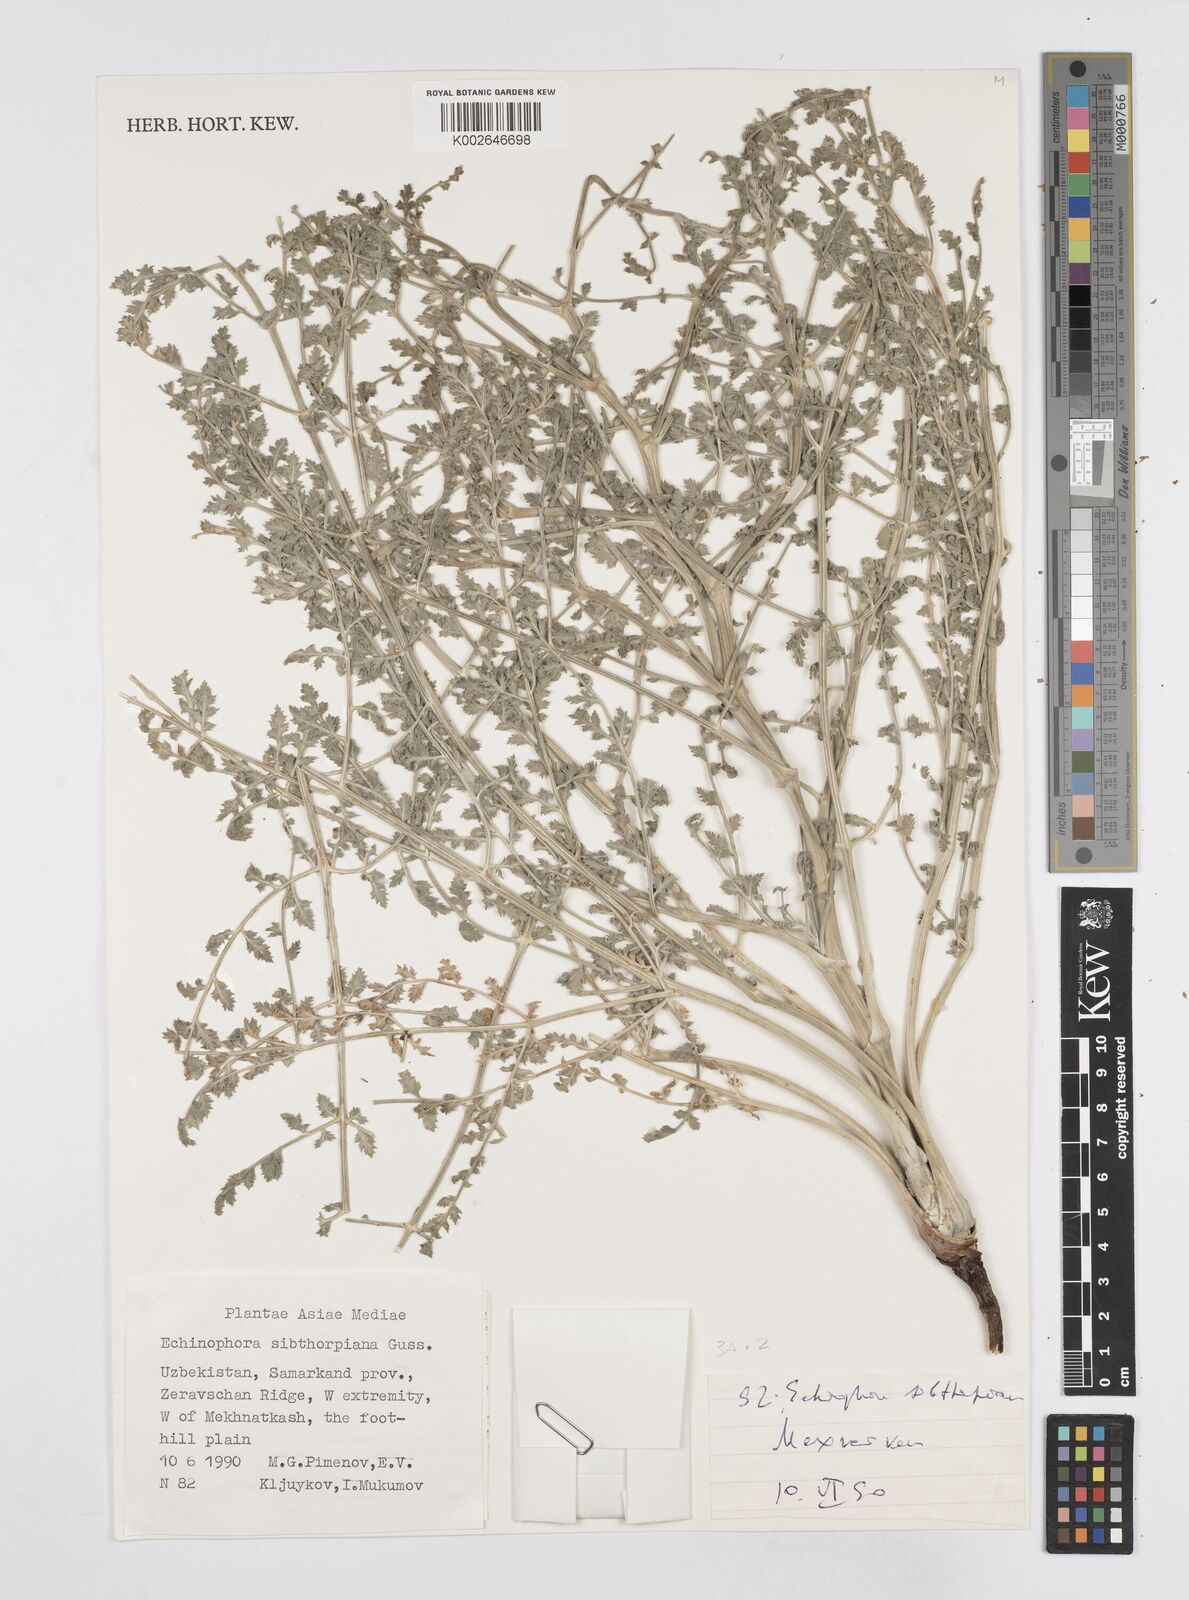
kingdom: Plantae
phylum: Tracheophyta
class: Magnoliopsida
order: Apiales
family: Apiaceae
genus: Echinophora
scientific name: Echinophora sibthorpiana
